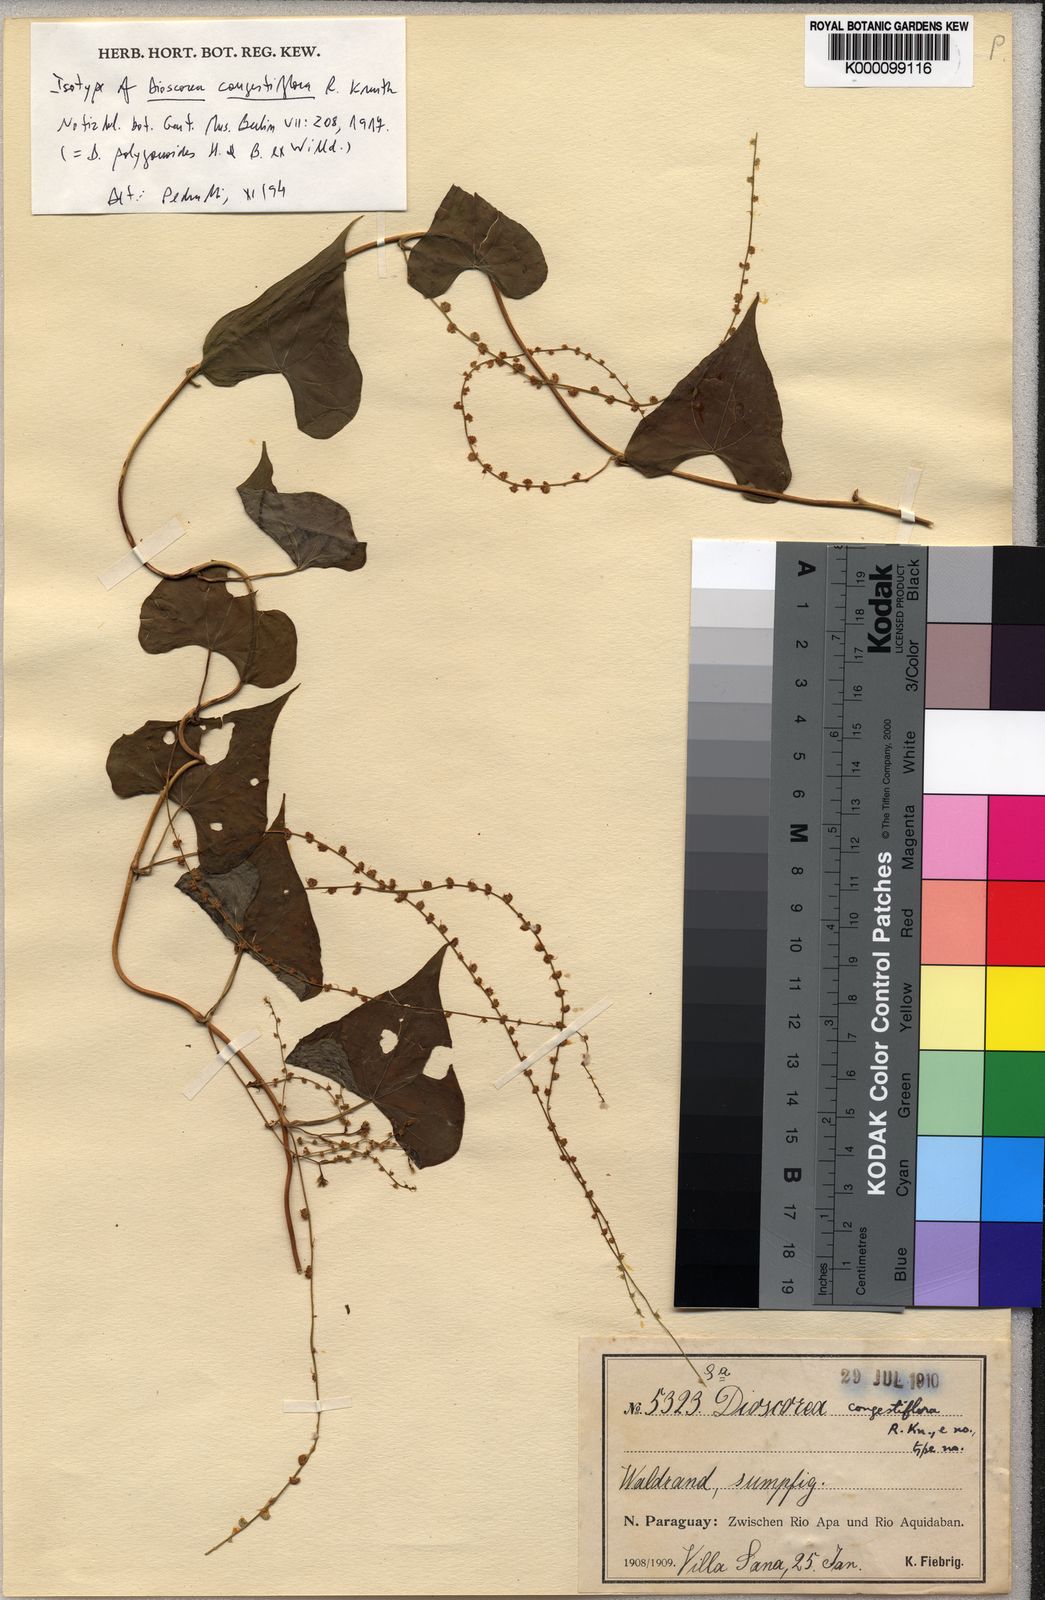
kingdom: Plantae
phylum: Tracheophyta
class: Liliopsida
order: Dioscoreales
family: Dioscoreaceae
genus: Dioscorea
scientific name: Dioscorea ceratandra
